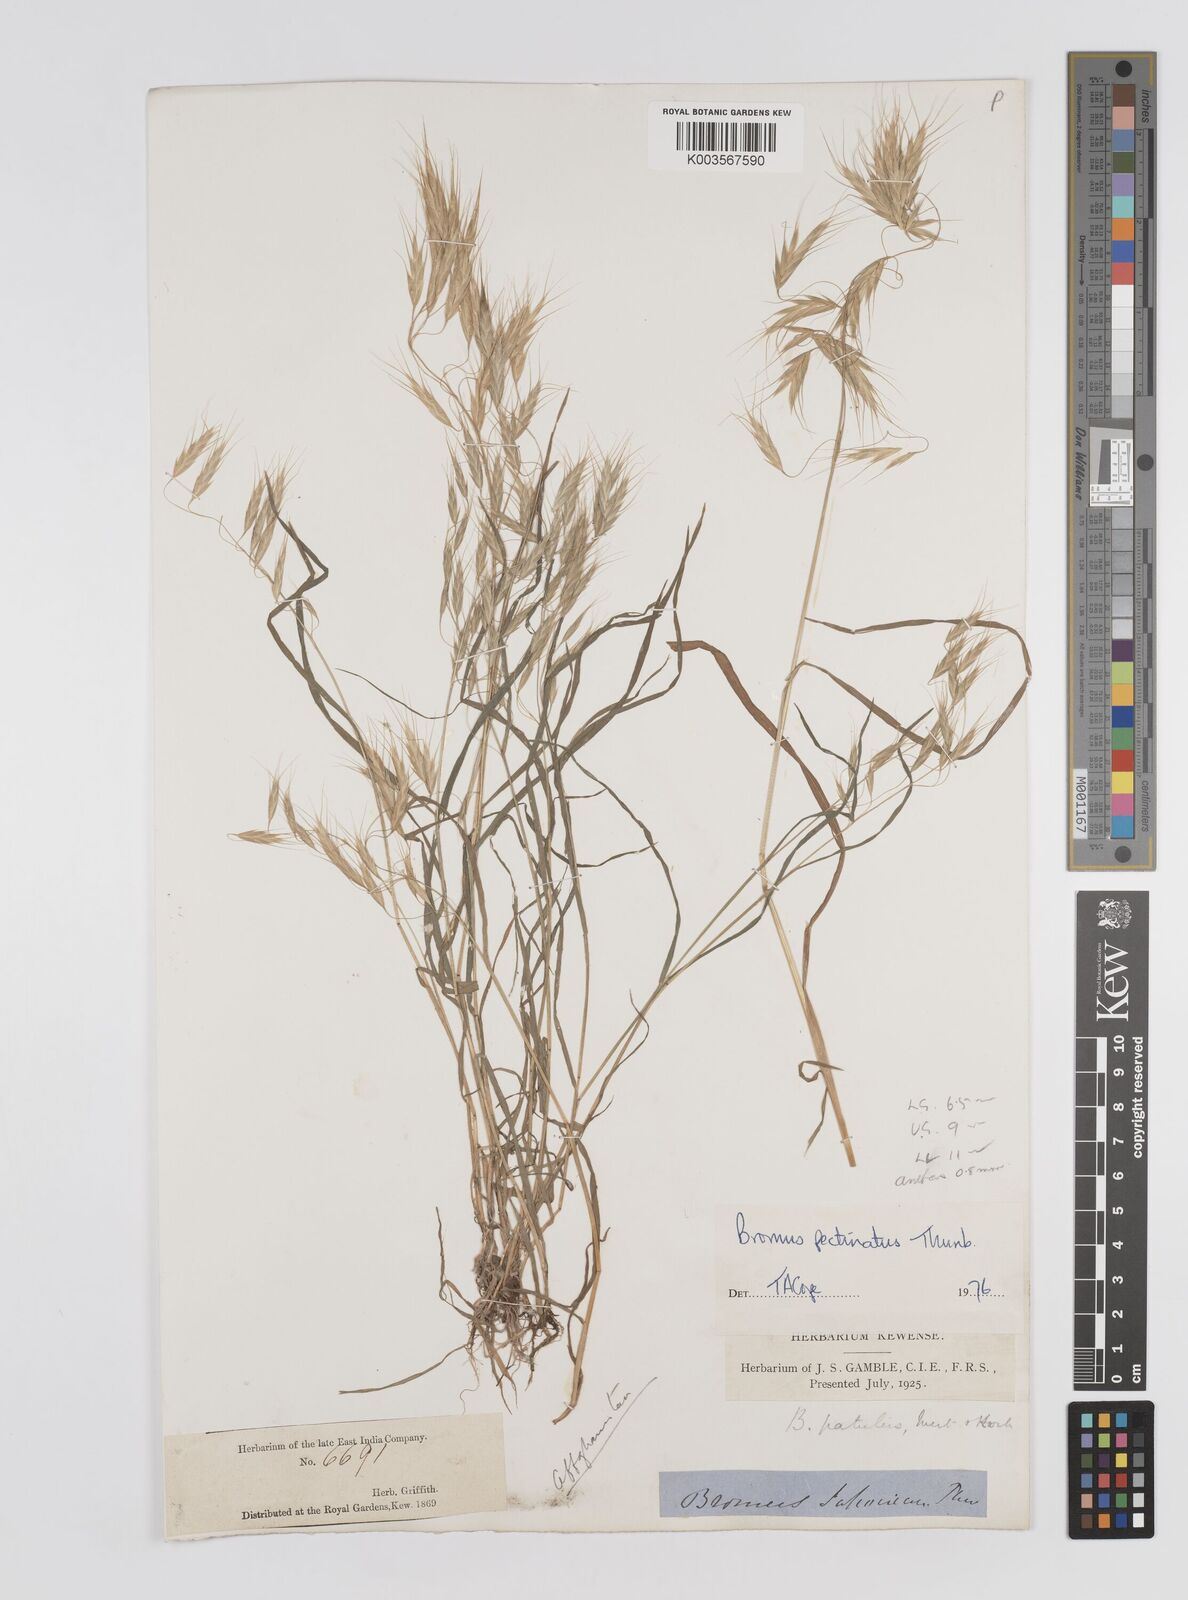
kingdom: Plantae
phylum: Tracheophyta
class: Liliopsida
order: Poales
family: Poaceae
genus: Bromus
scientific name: Bromus pectinatus
